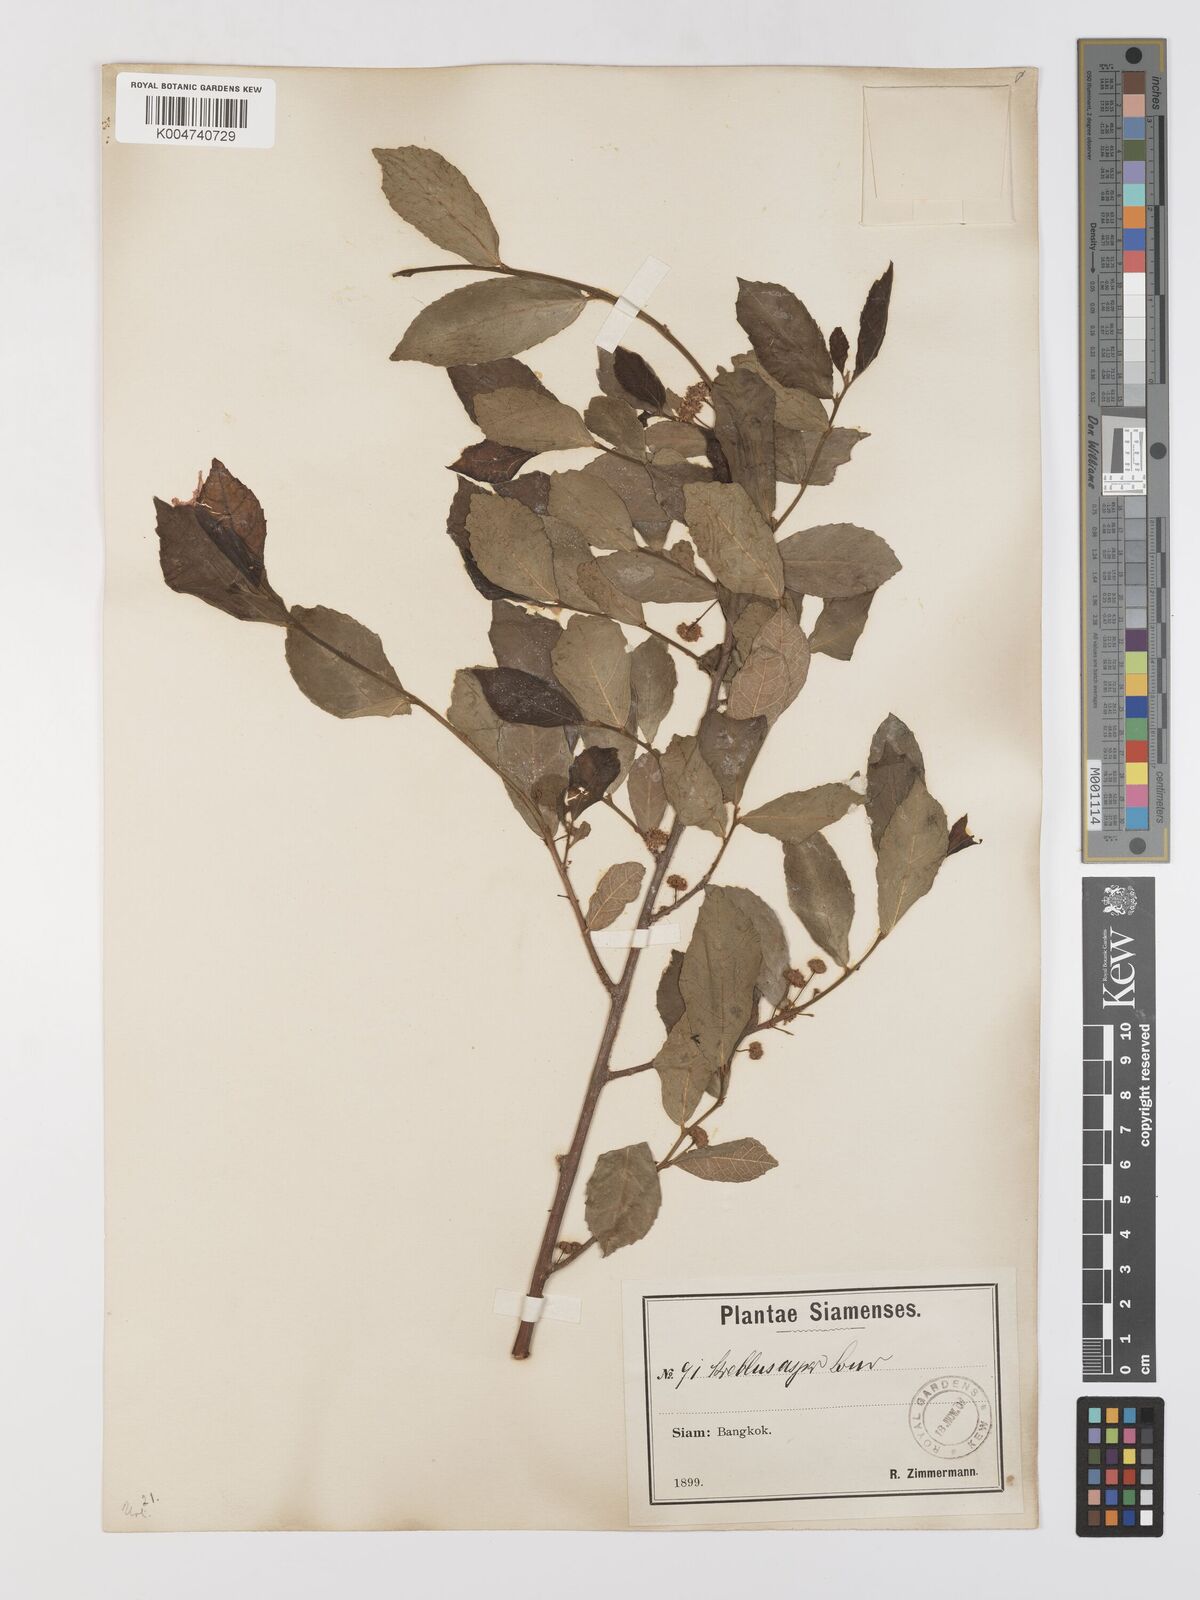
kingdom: Plantae
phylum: Tracheophyta
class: Magnoliopsida
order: Rosales
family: Moraceae
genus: Streblus
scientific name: Streblus asper
